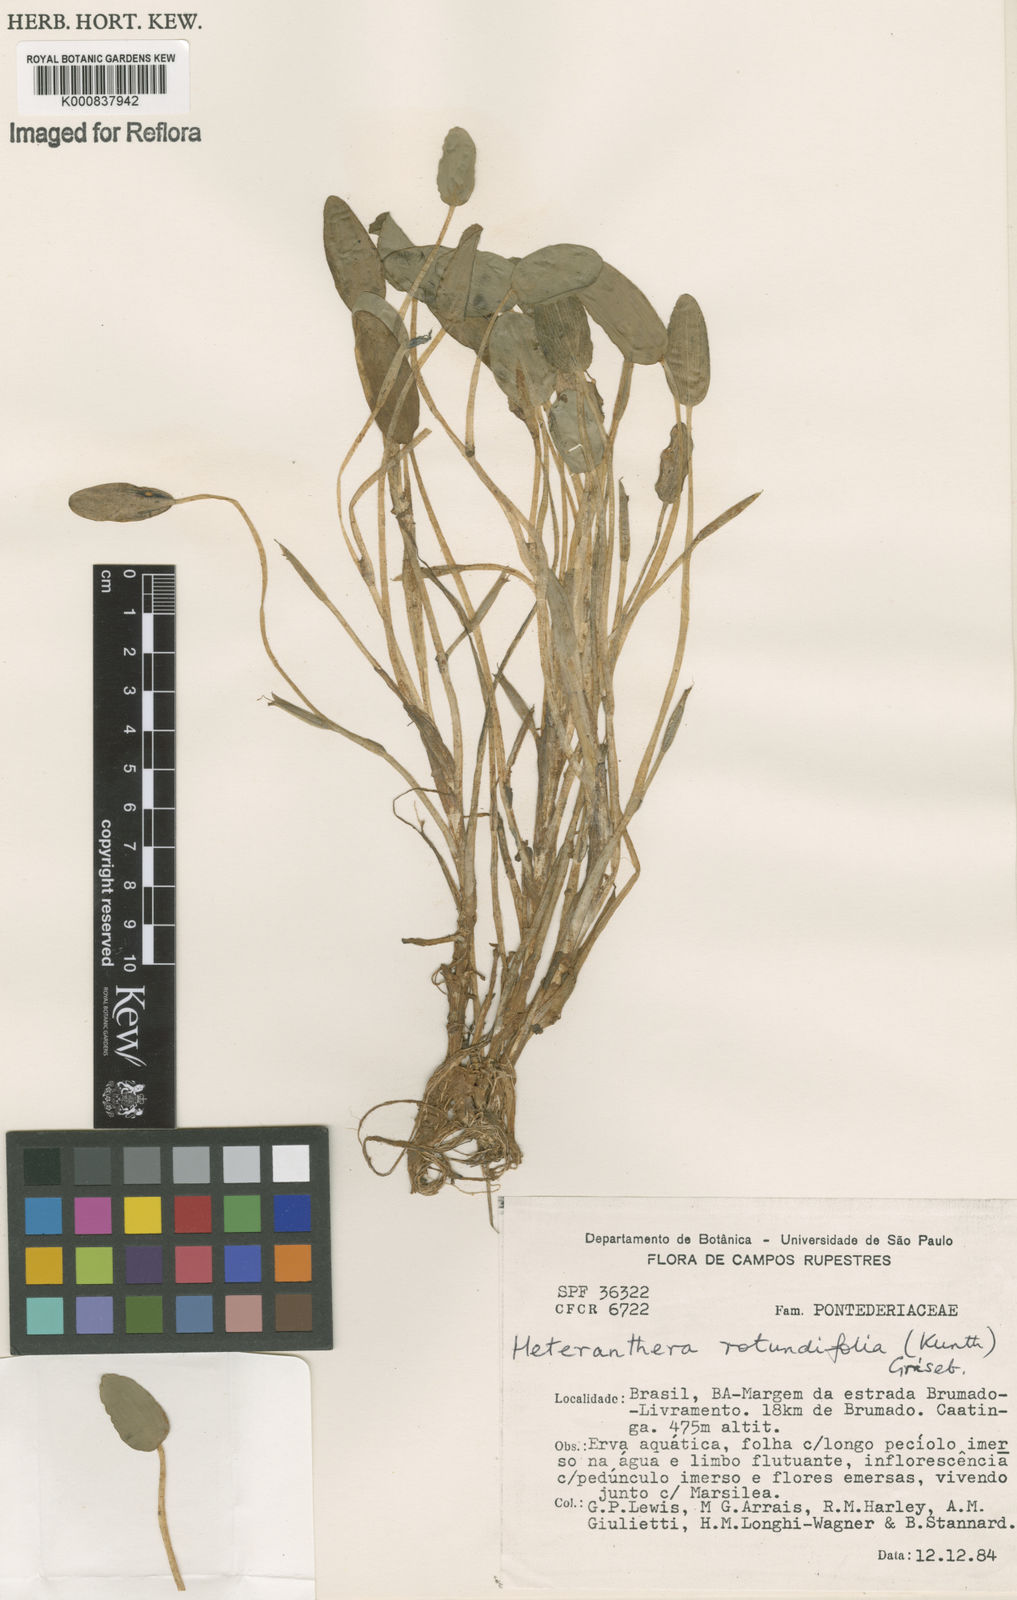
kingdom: Plantae
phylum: Tracheophyta
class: Liliopsida
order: Commelinales
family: Pontederiaceae
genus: Heteranthera
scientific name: Heteranthera rotundifolia
